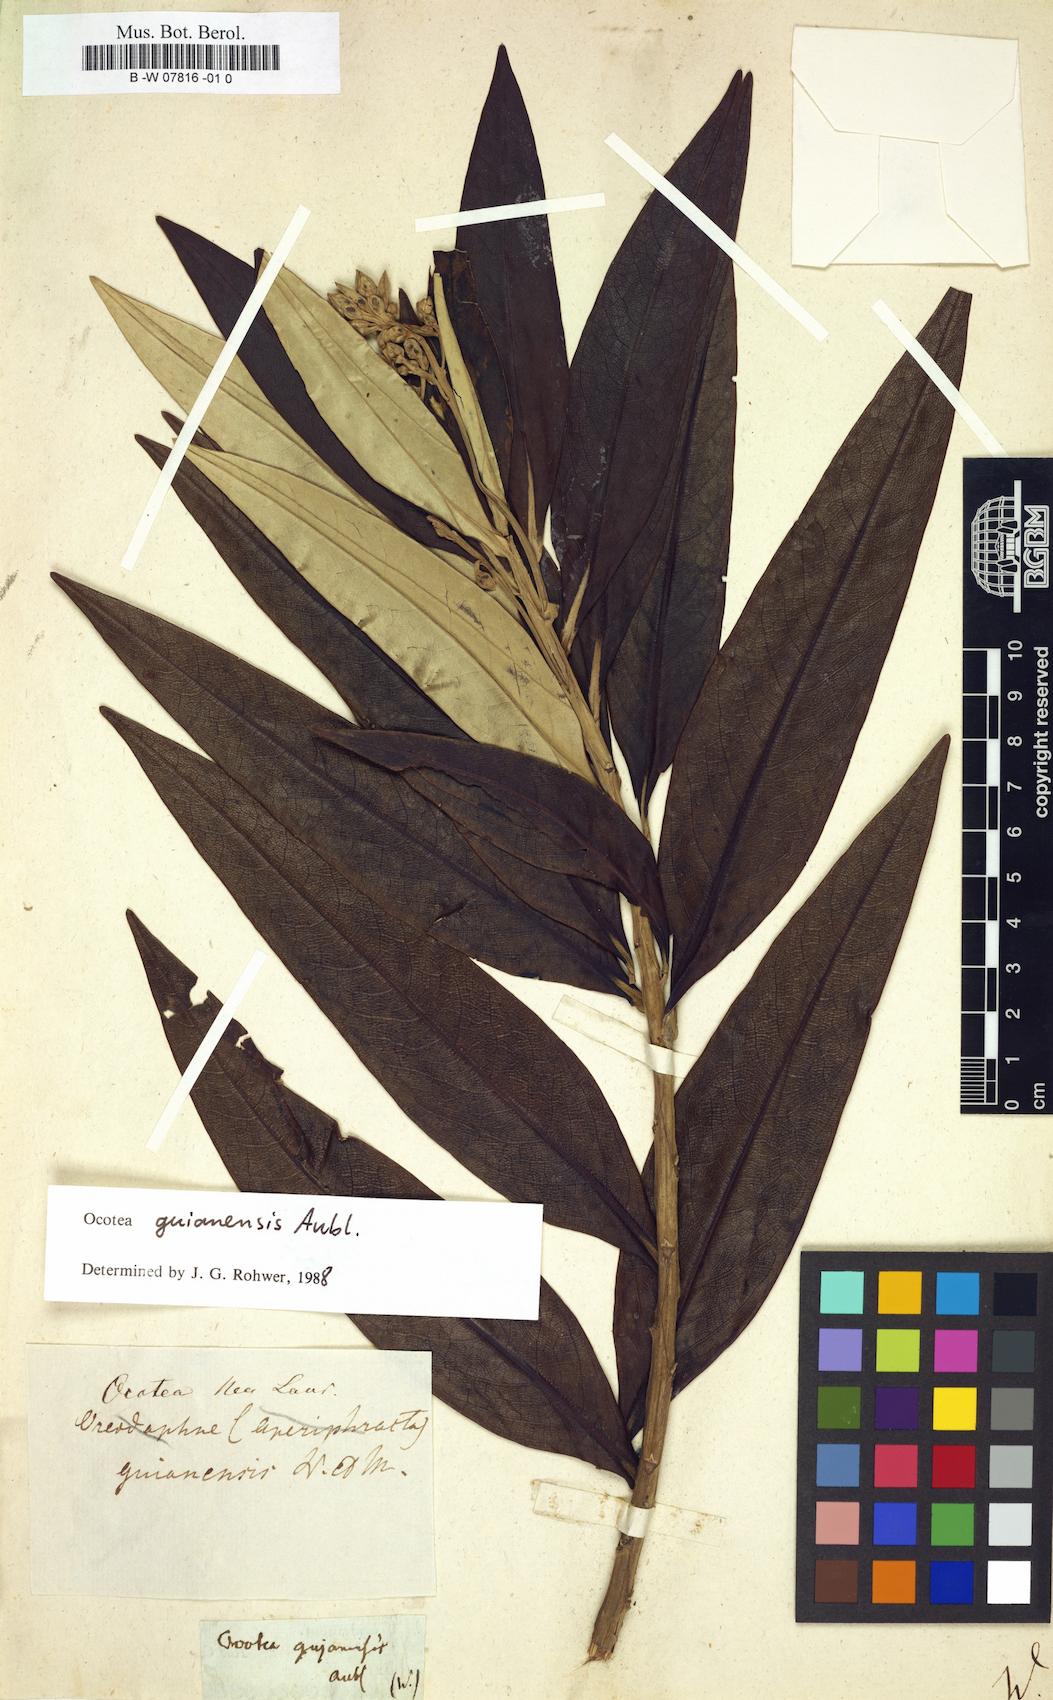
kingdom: Plantae
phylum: Tracheophyta
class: Magnoliopsida
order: Laurales
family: Lauraceae
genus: Ocotea
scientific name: Ocotea guianensis
